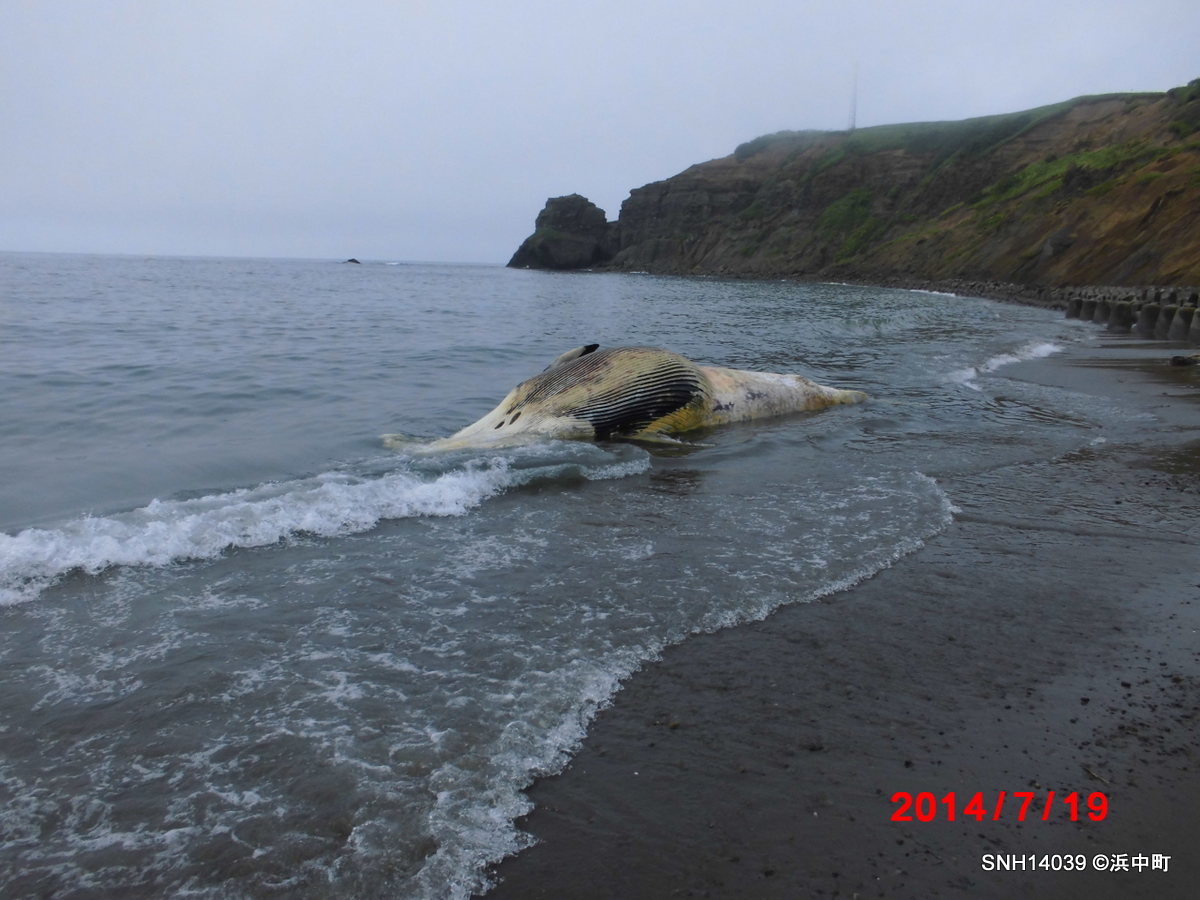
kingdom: Animalia
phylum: Chordata
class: Mammalia
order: Cetacea
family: Balaenopteridae
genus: Balaenoptera
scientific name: Balaenoptera acutorostrata
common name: Minke whale
